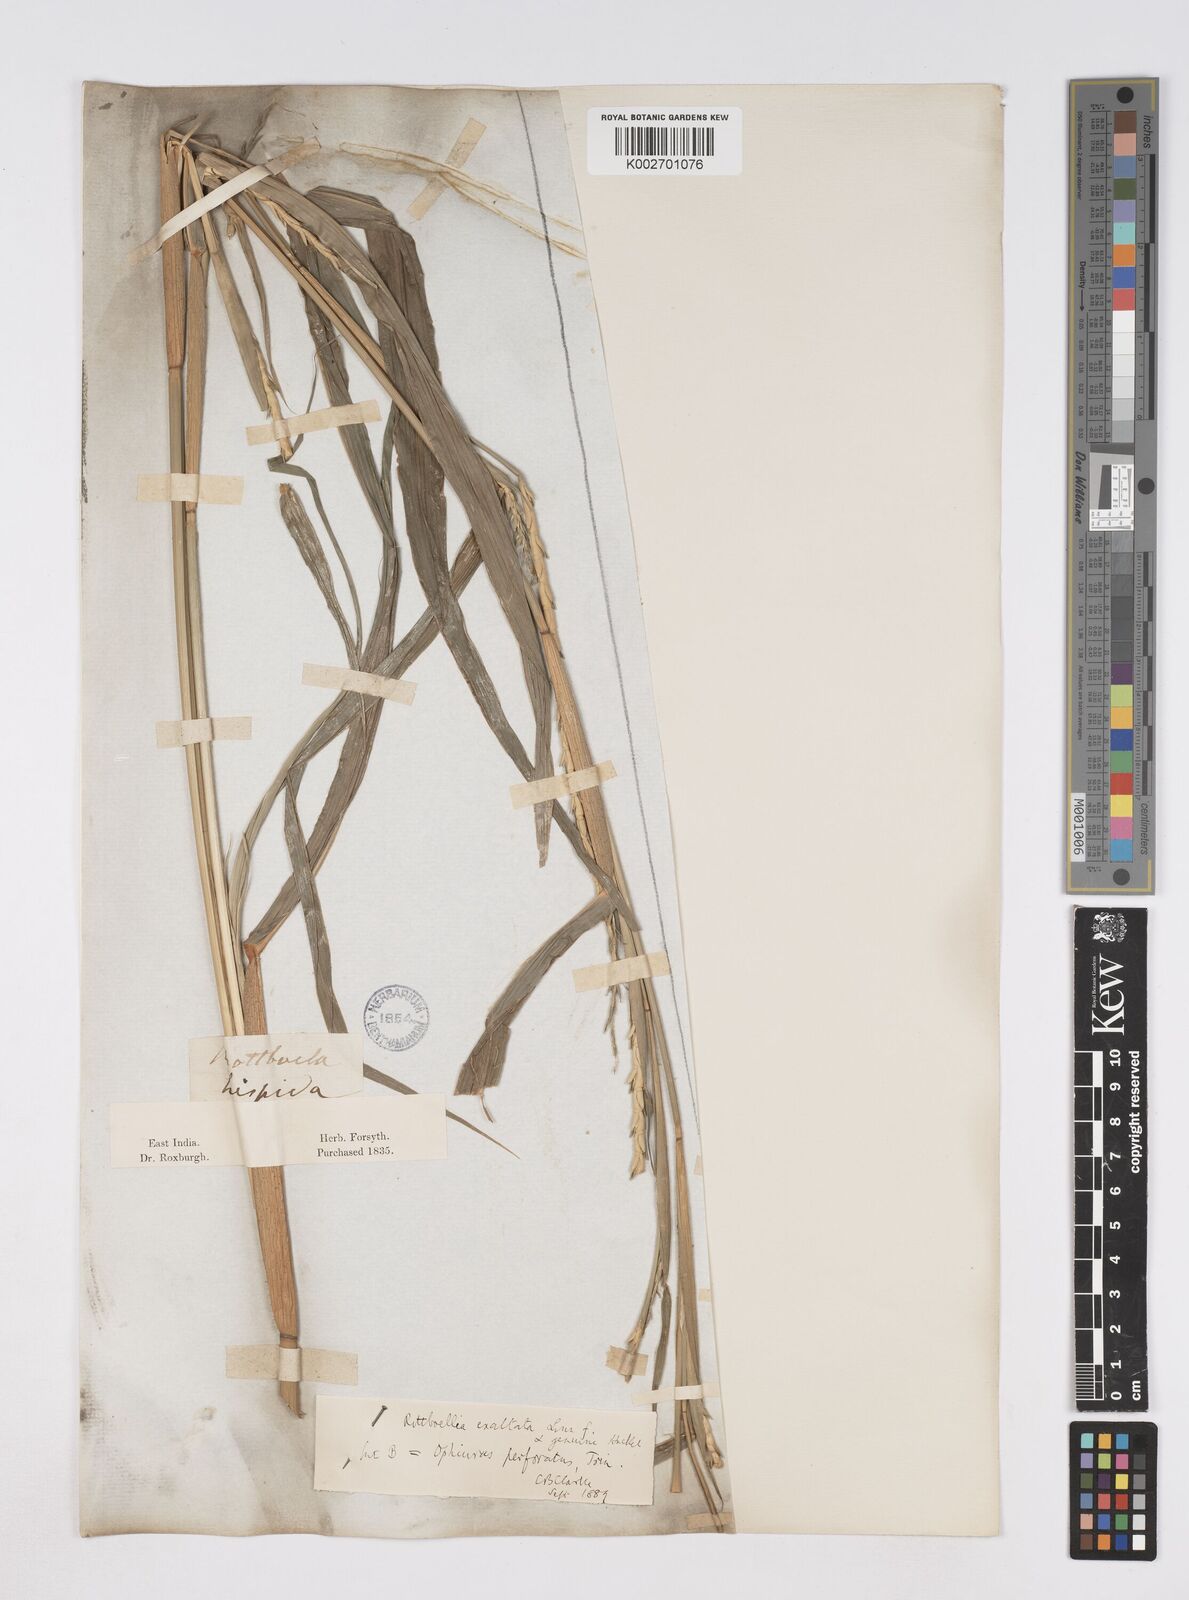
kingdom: Plantae
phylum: Tracheophyta
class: Liliopsida
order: Poales
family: Poaceae
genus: Ophiuros
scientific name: Ophiuros exaltatus
